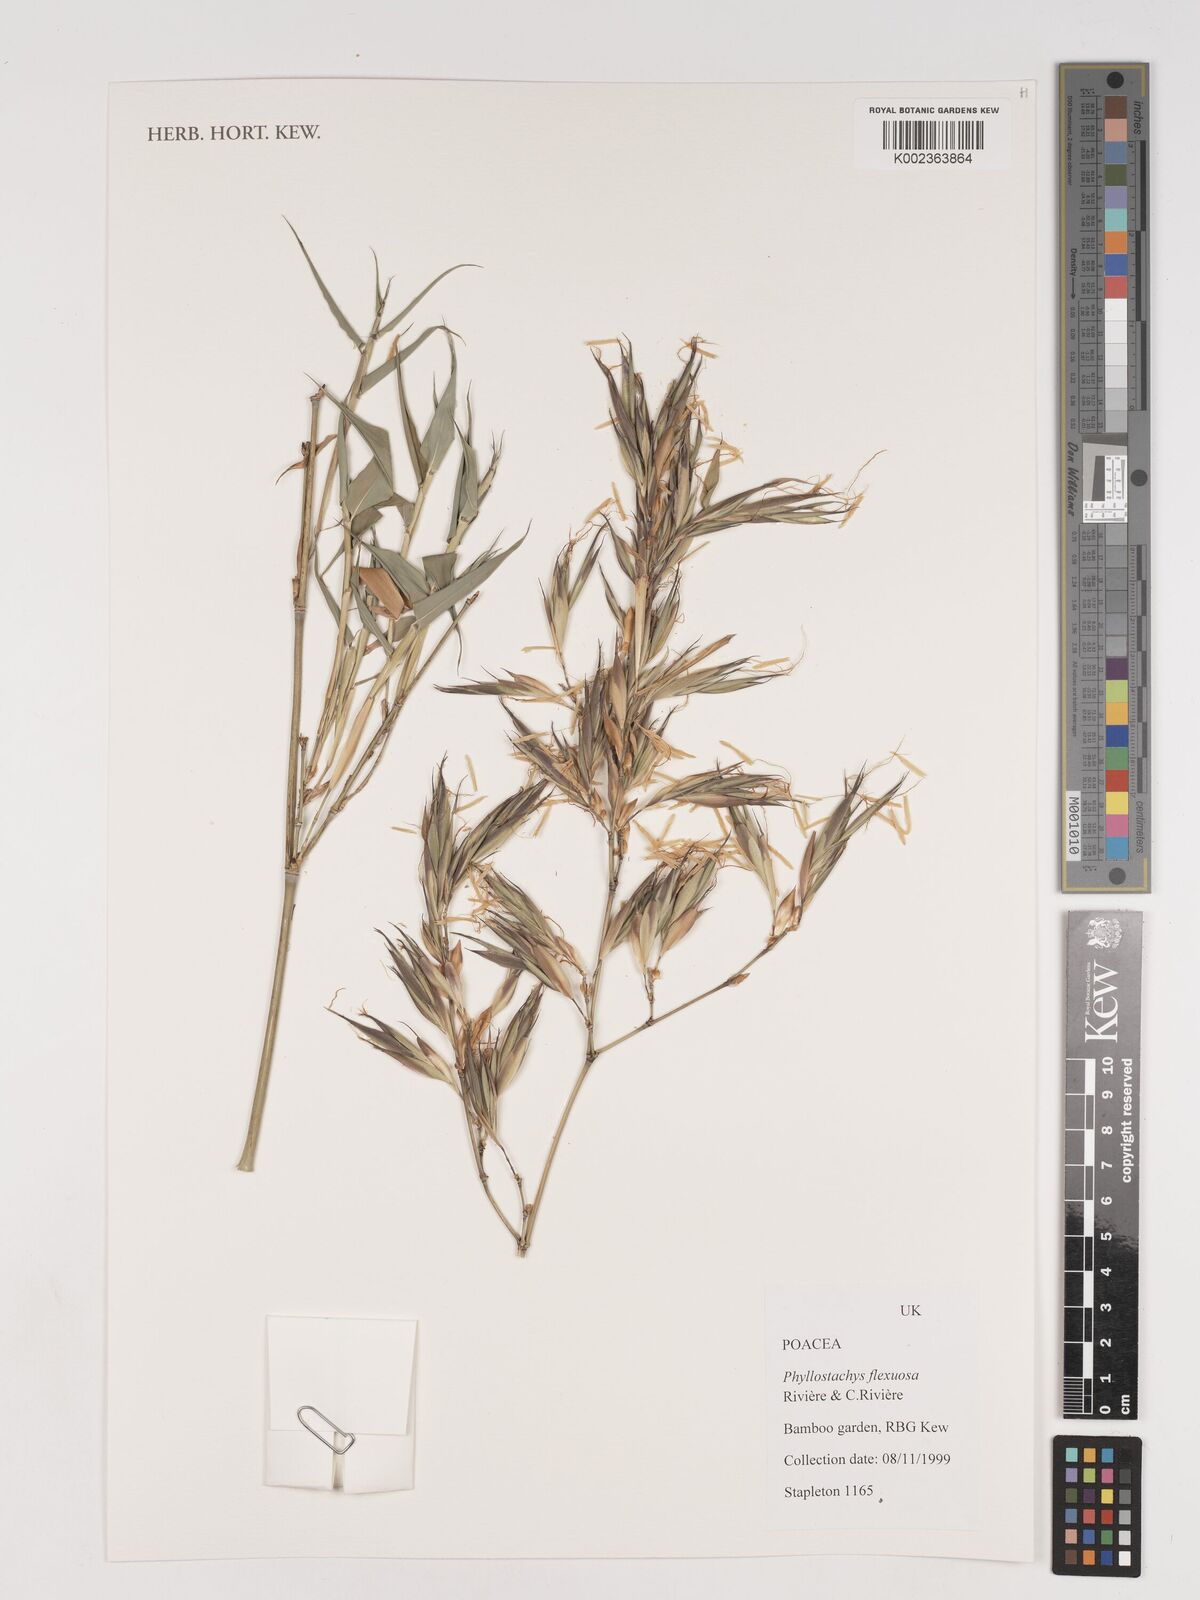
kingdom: Plantae
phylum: Tracheophyta
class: Liliopsida
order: Poales
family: Poaceae
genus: Phyllostachys
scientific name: Phyllostachys flexuosa
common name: Drooping timber bamboo
